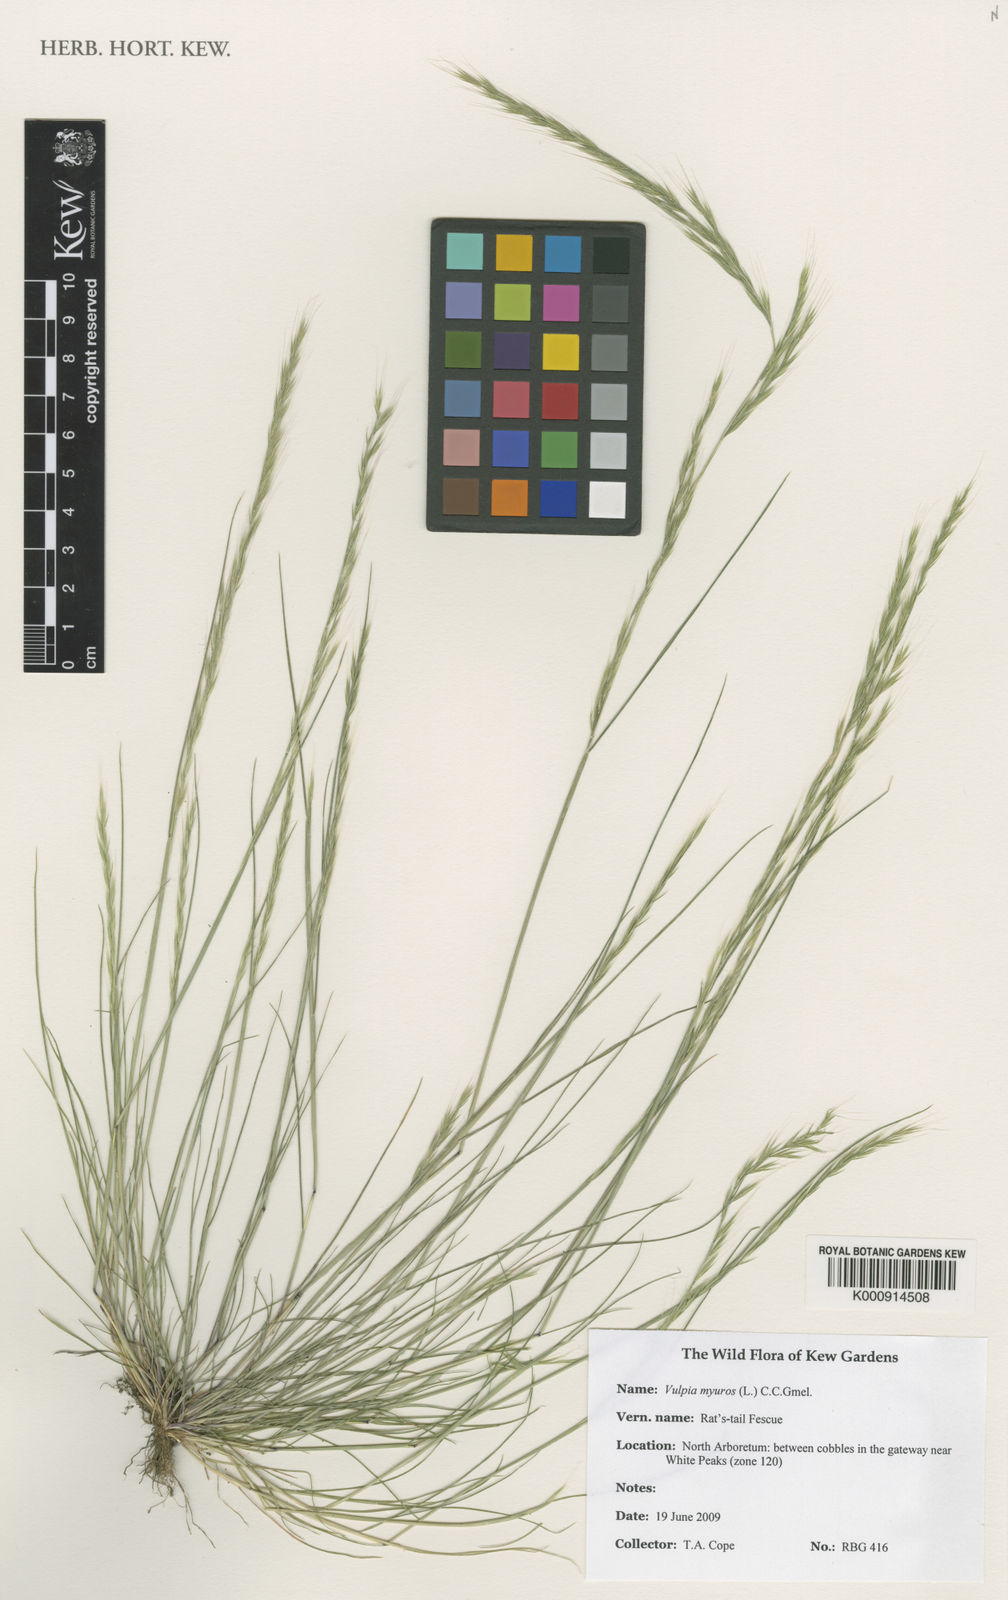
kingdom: Plantae
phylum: Tracheophyta
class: Liliopsida
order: Poales
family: Poaceae
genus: Festuca
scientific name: Festuca myuros
